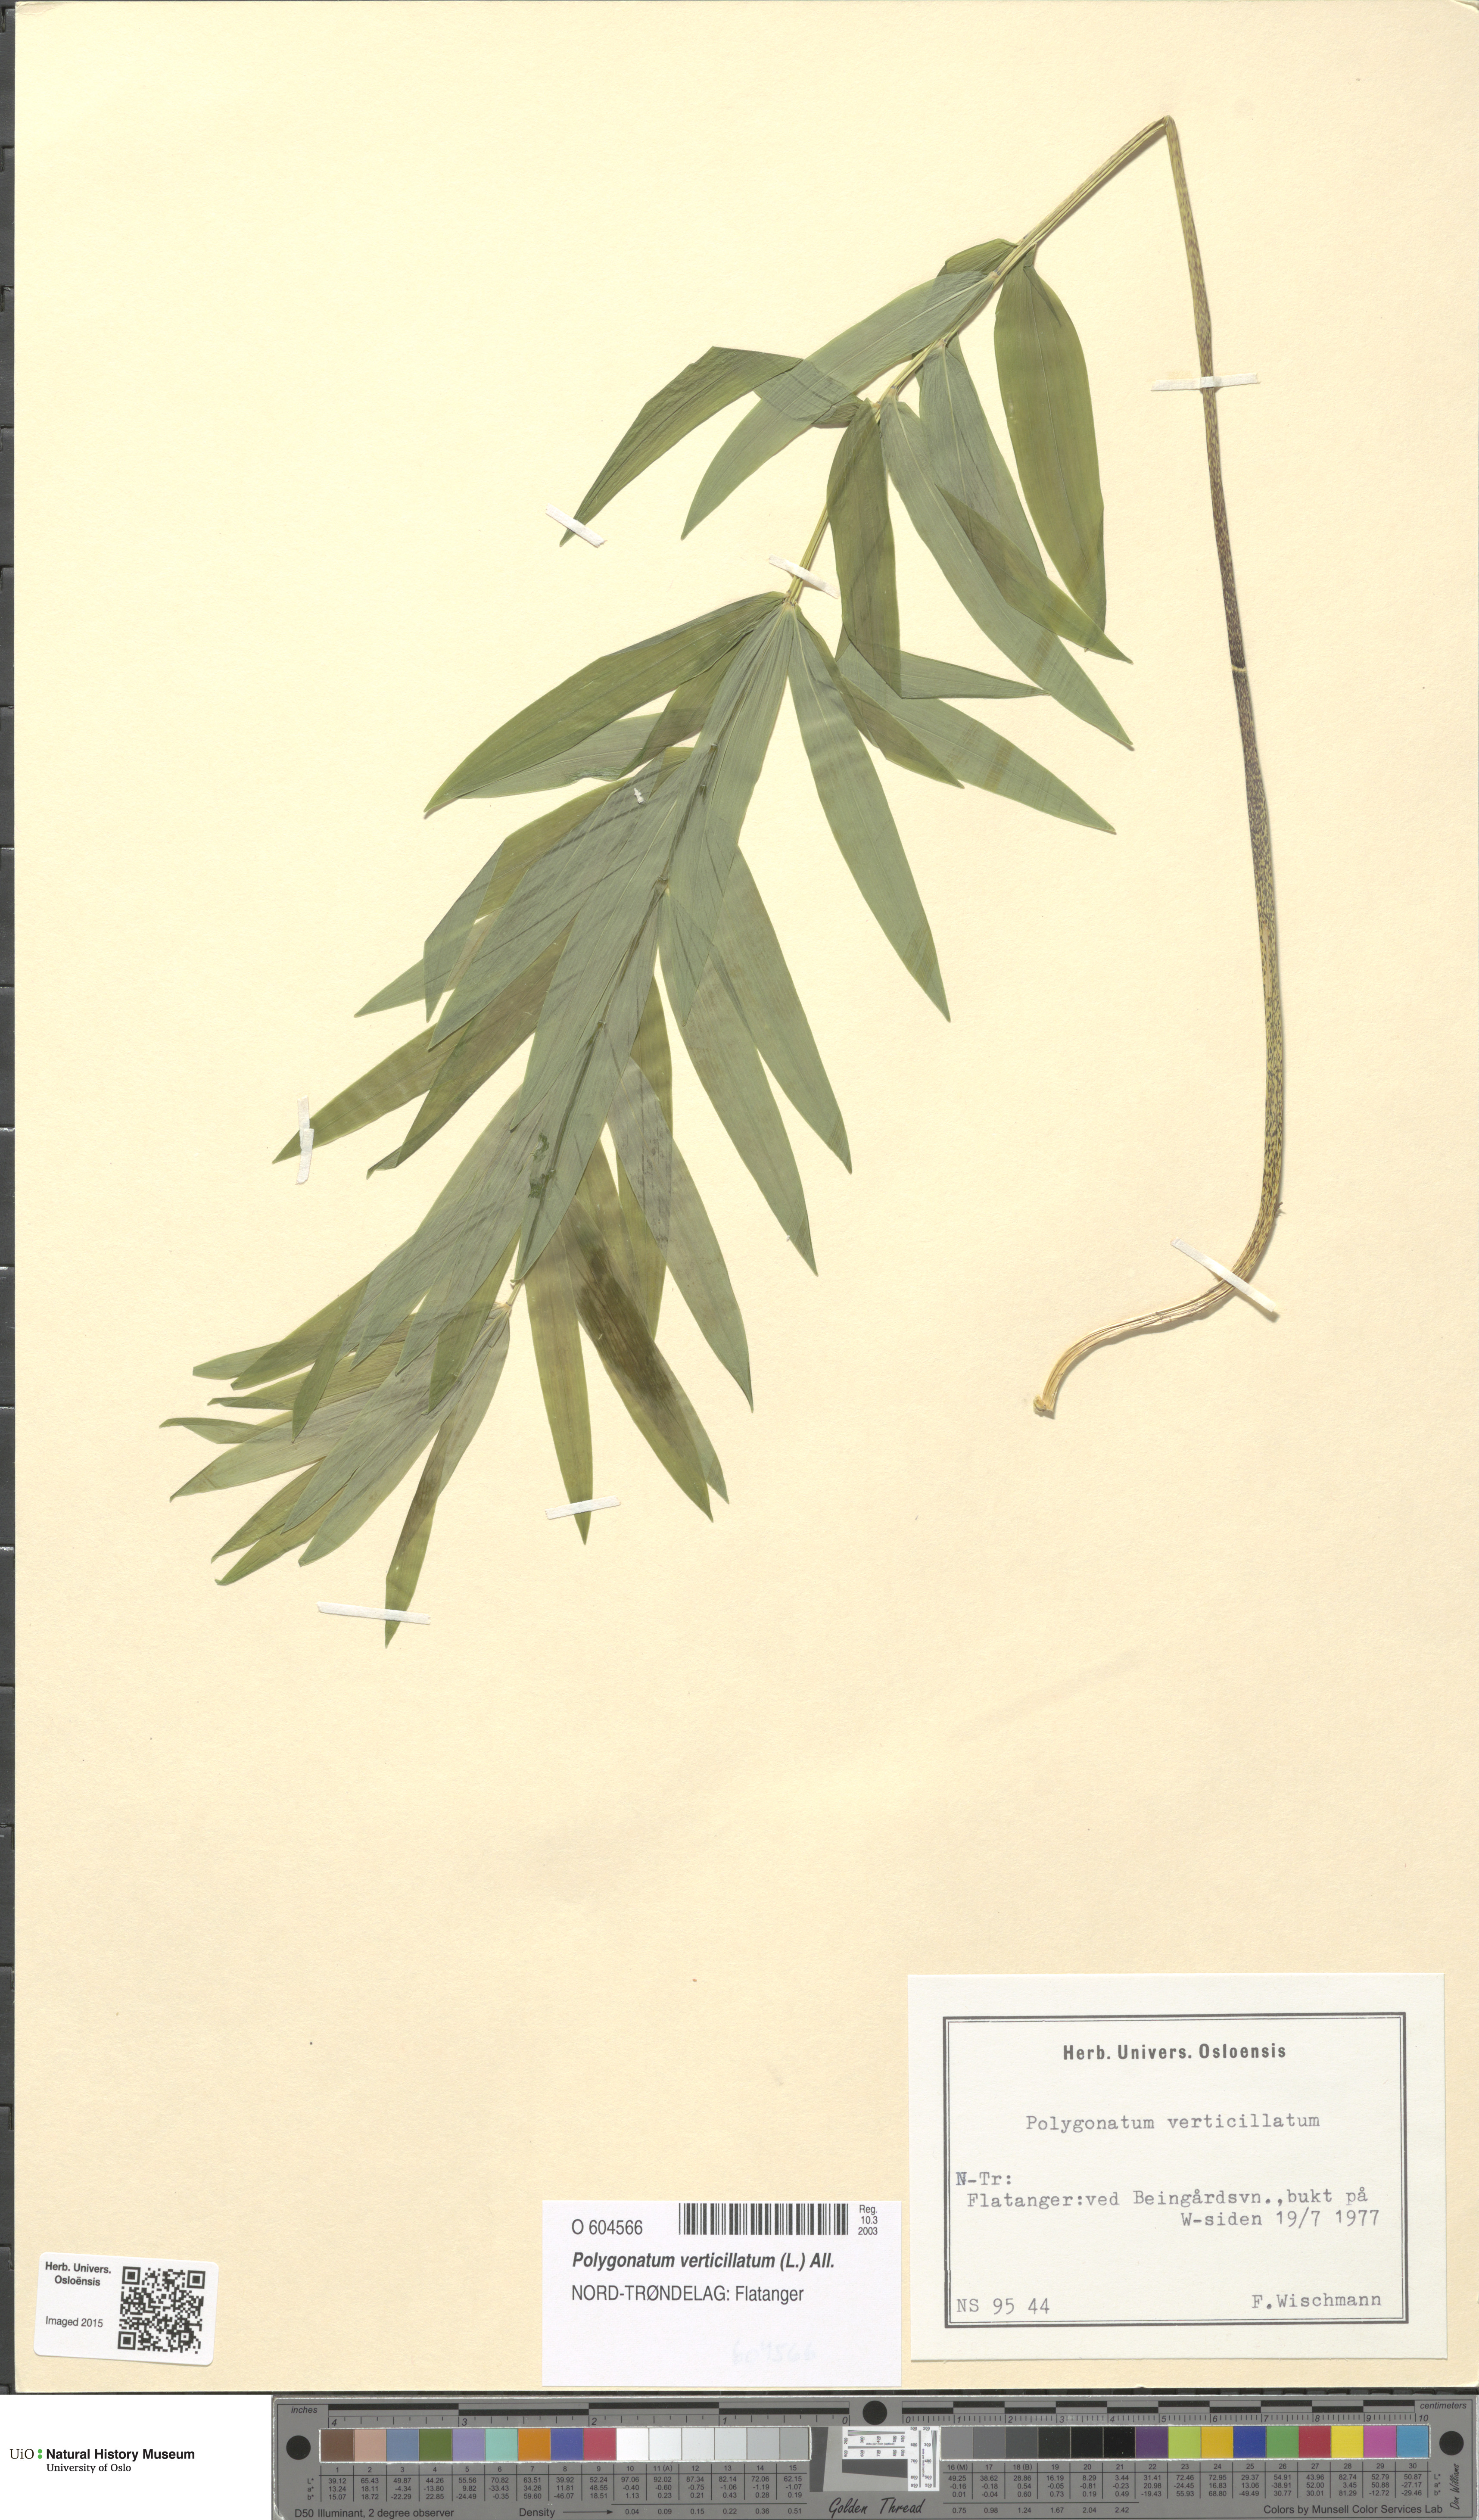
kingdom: Plantae
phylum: Tracheophyta
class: Liliopsida
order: Asparagales
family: Asparagaceae
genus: Polygonatum
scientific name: Polygonatum verticillatum
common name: Whorled solomon's-seal
